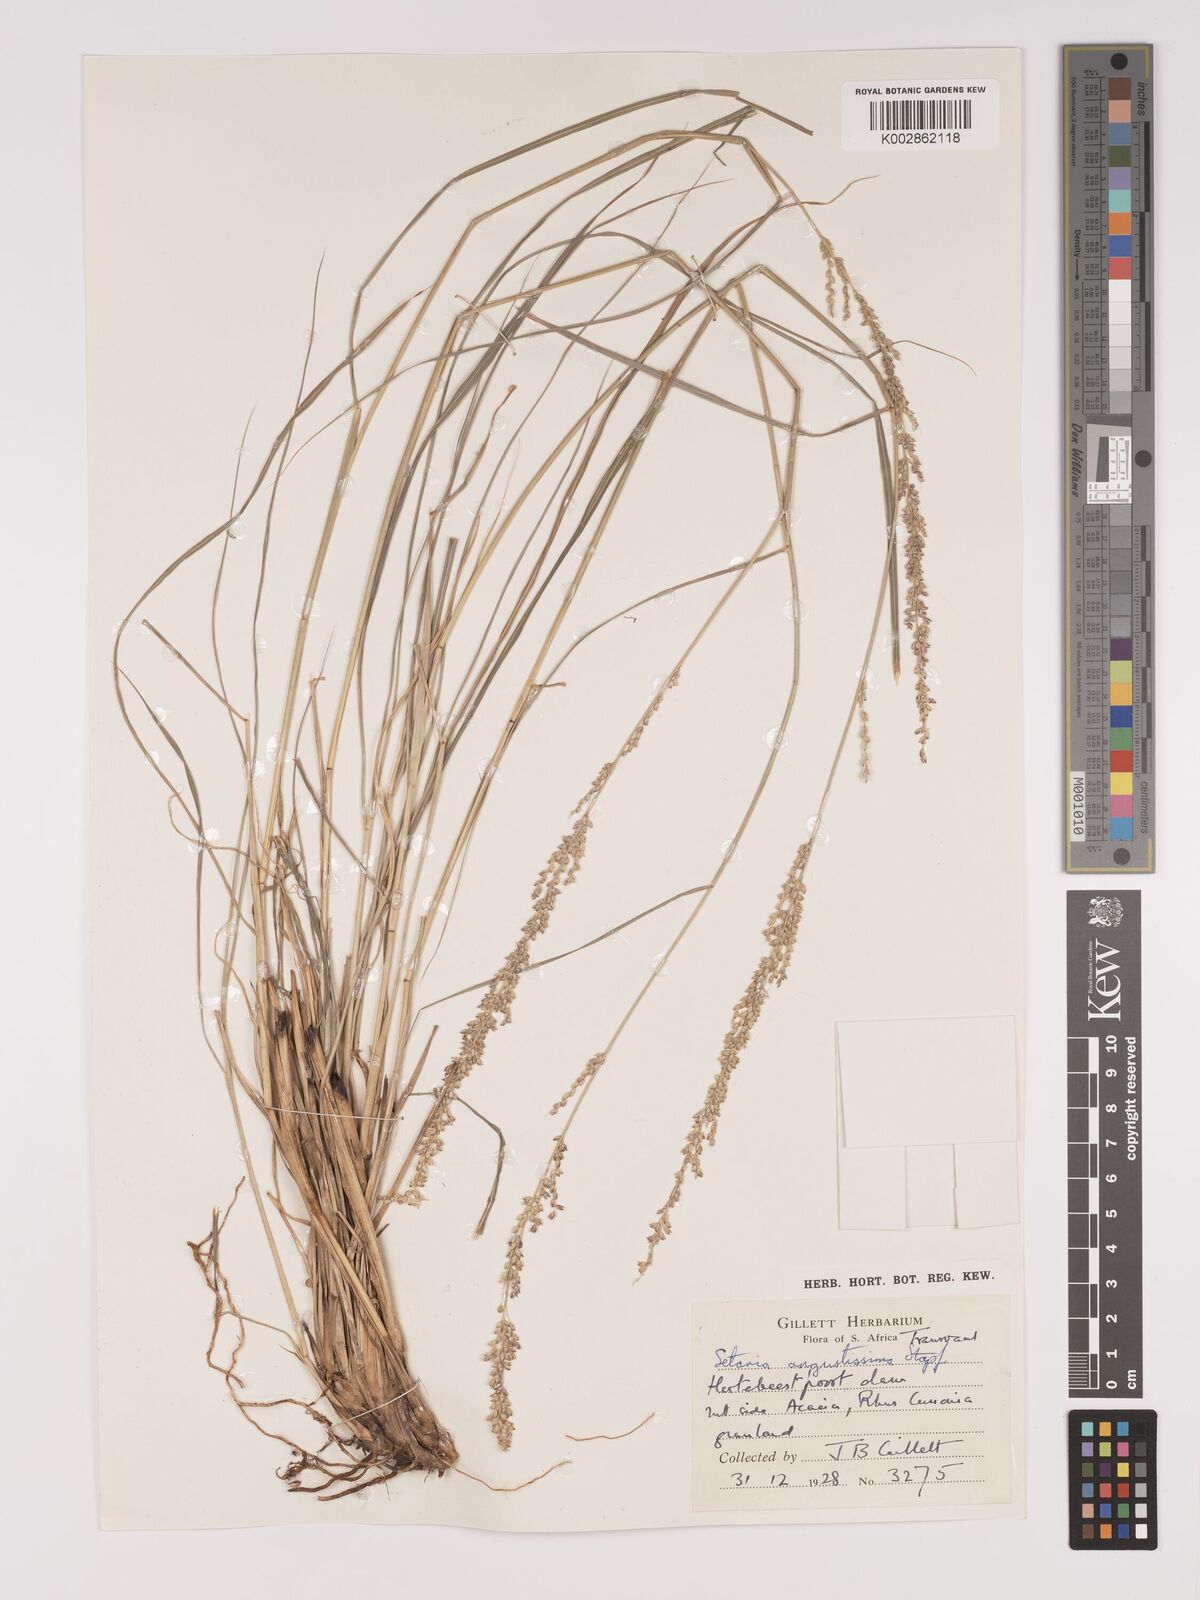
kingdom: Plantae
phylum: Tracheophyta
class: Liliopsida
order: Poales
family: Poaceae
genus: Setaria
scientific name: Setaria lindenbergiana
